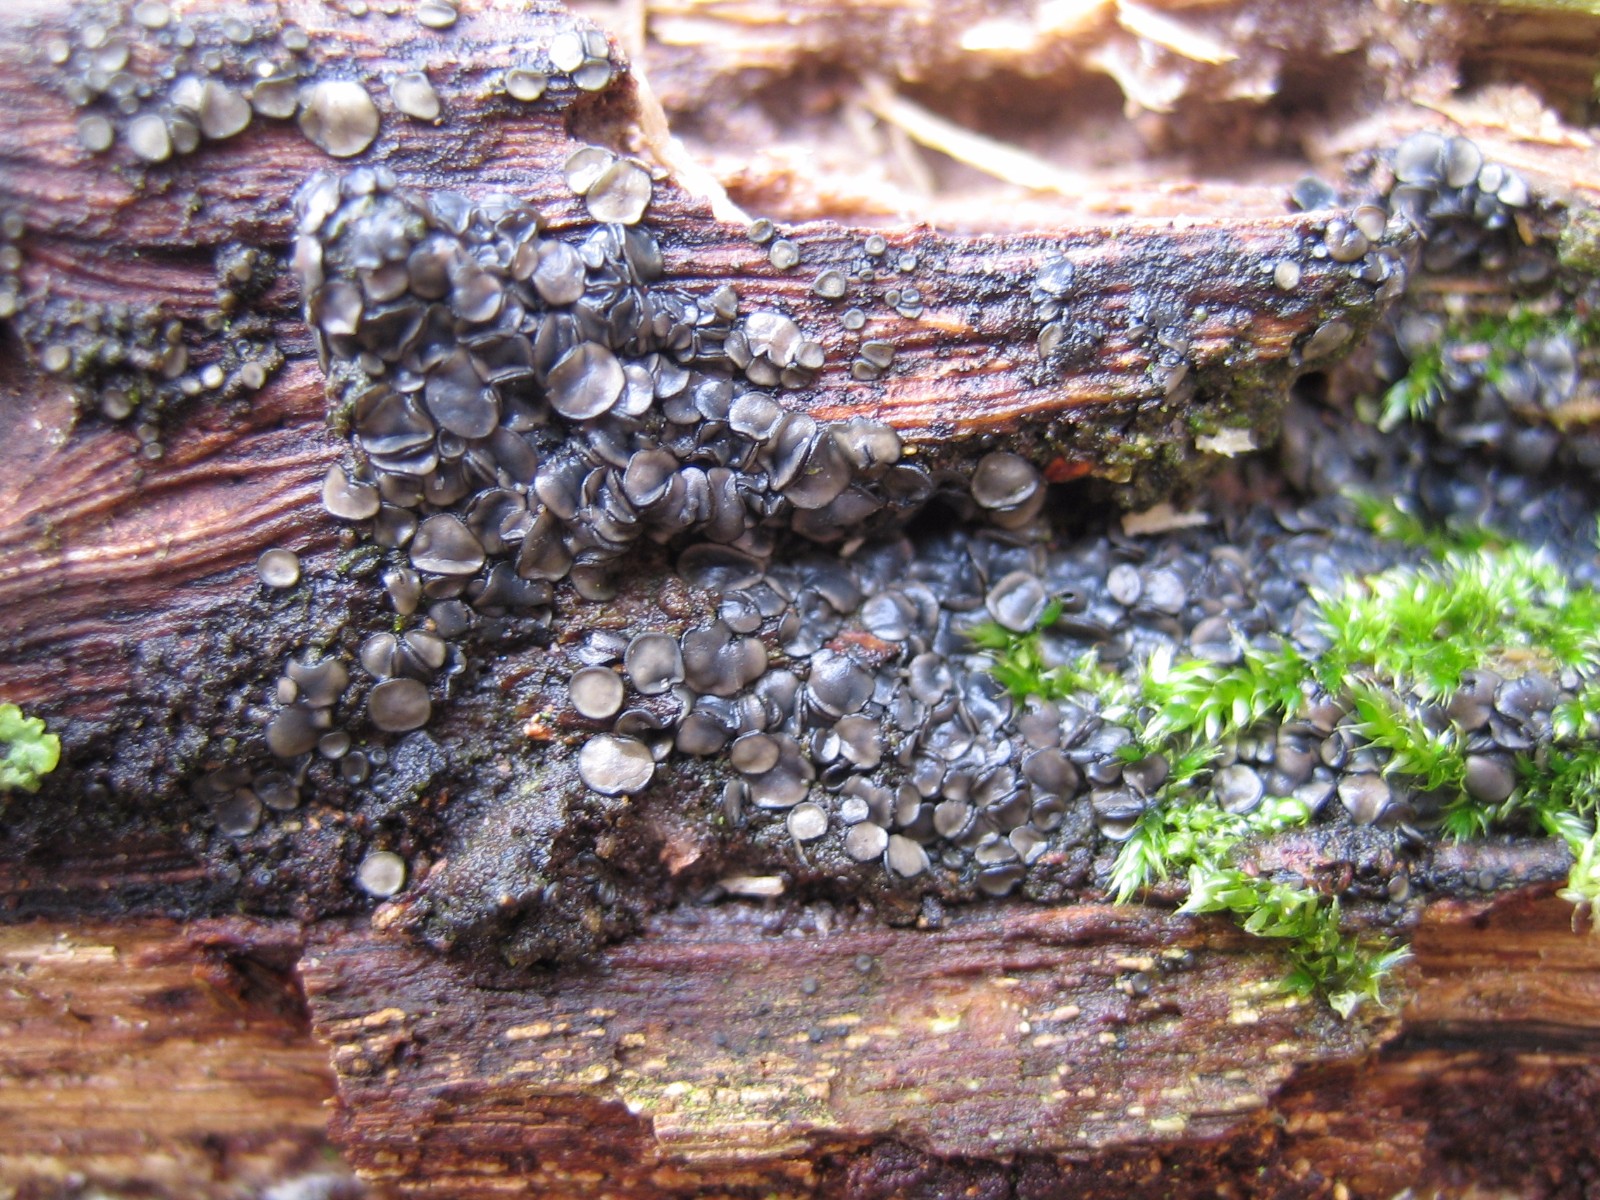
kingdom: Fungi
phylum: Ascomycota
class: Leotiomycetes
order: Helotiales
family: Mollisiaceae
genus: Mollisia
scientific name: Mollisia
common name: gråskive
